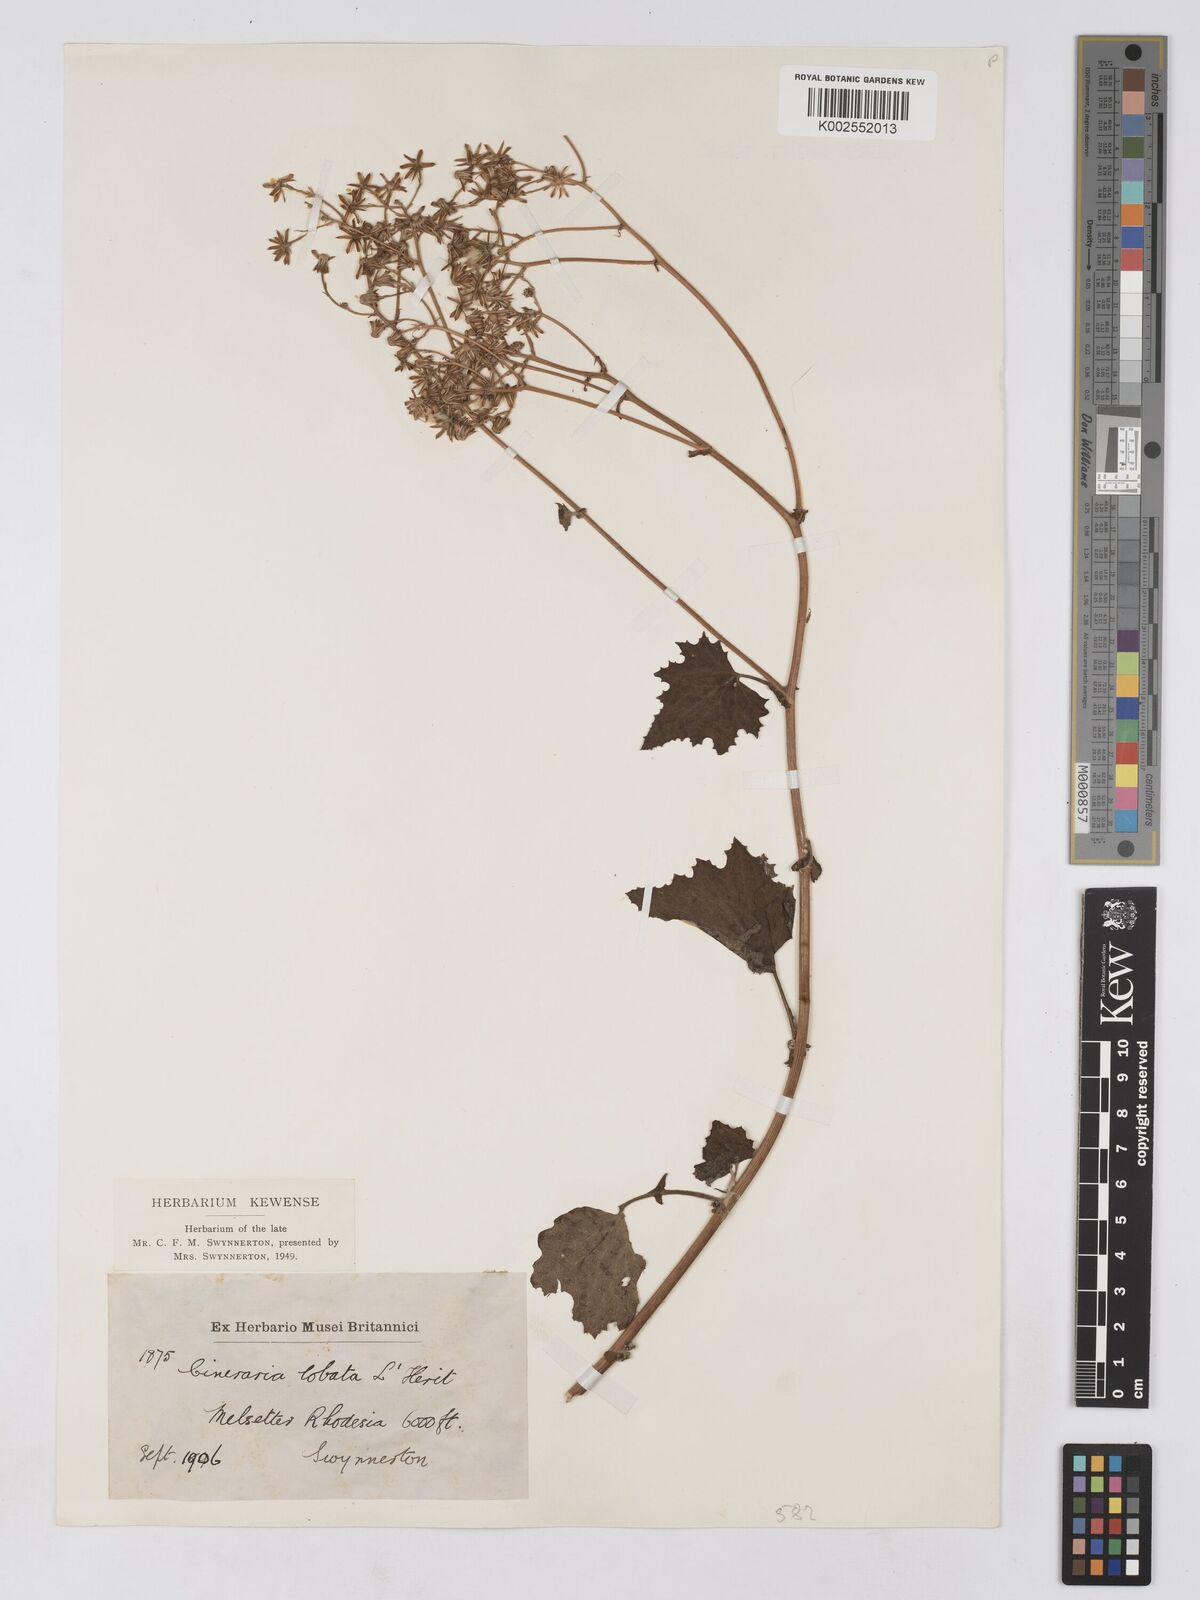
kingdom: Plantae
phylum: Tracheophyta
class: Magnoliopsida
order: Asterales
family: Asteraceae
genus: Cineraria
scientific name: Cineraria deltoidea
